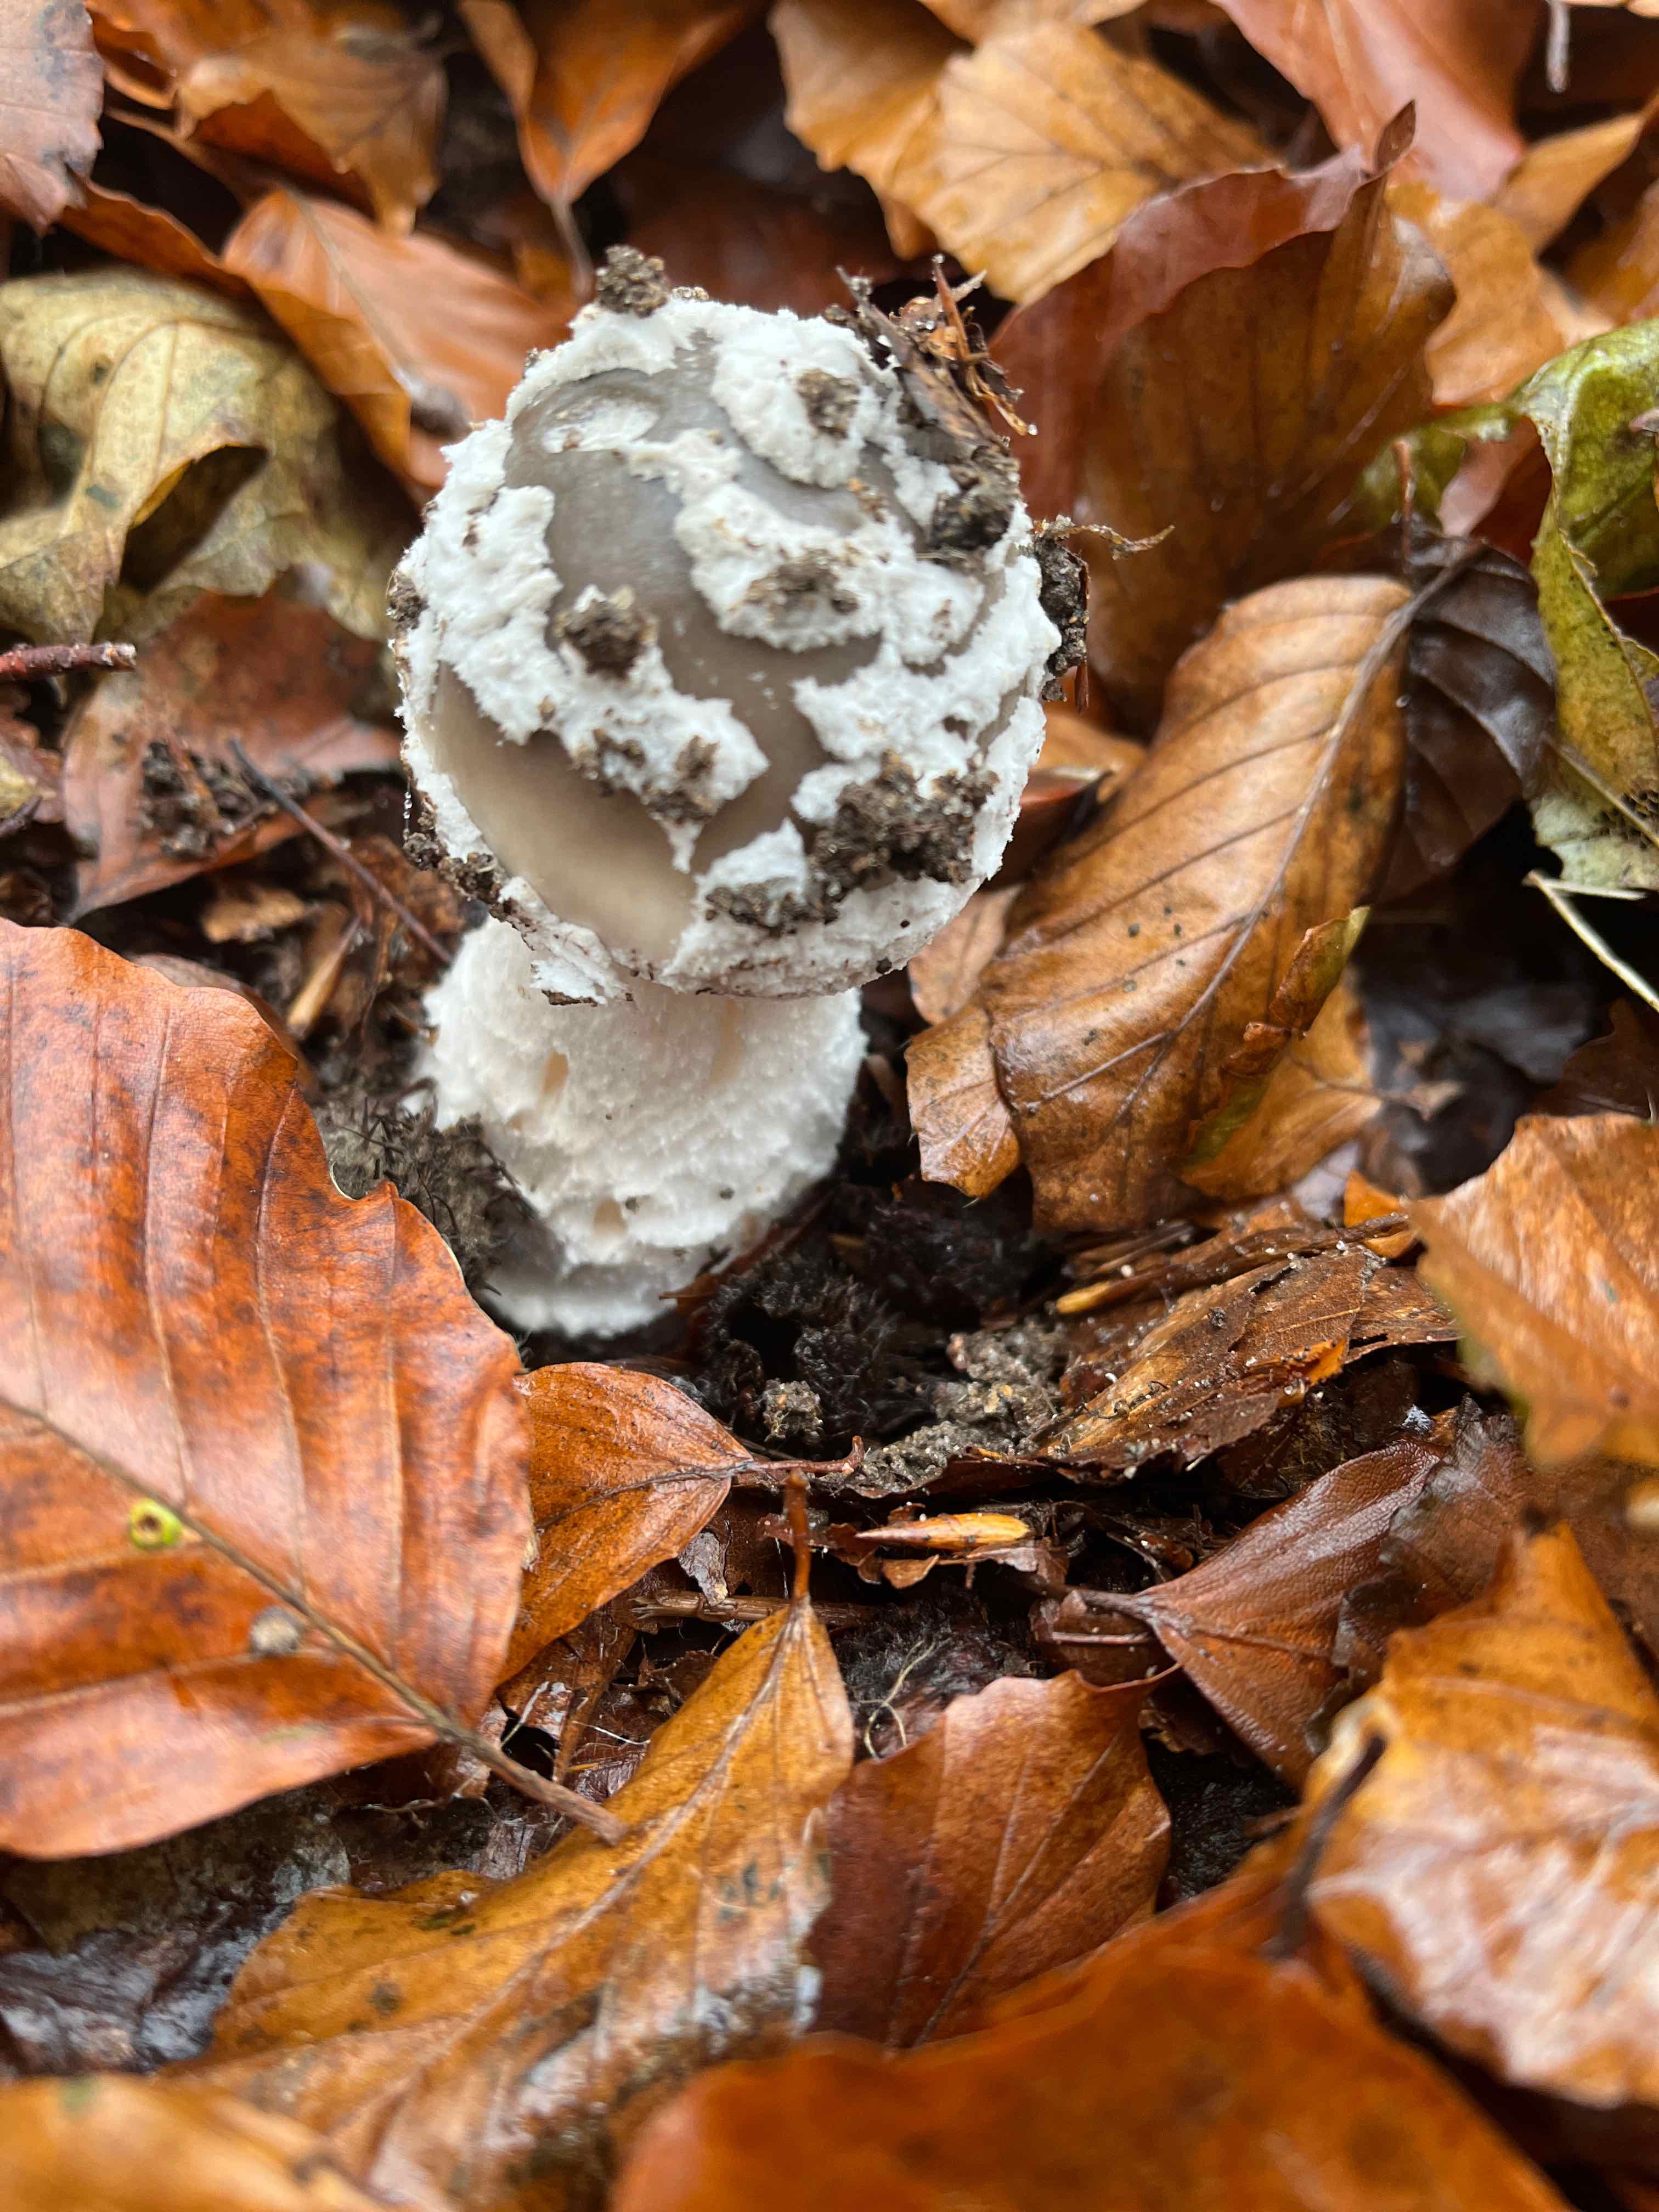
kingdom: Fungi
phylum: Basidiomycota
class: Agaricomycetes
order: Agaricales
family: Amanitaceae
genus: Amanita
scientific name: Amanita
